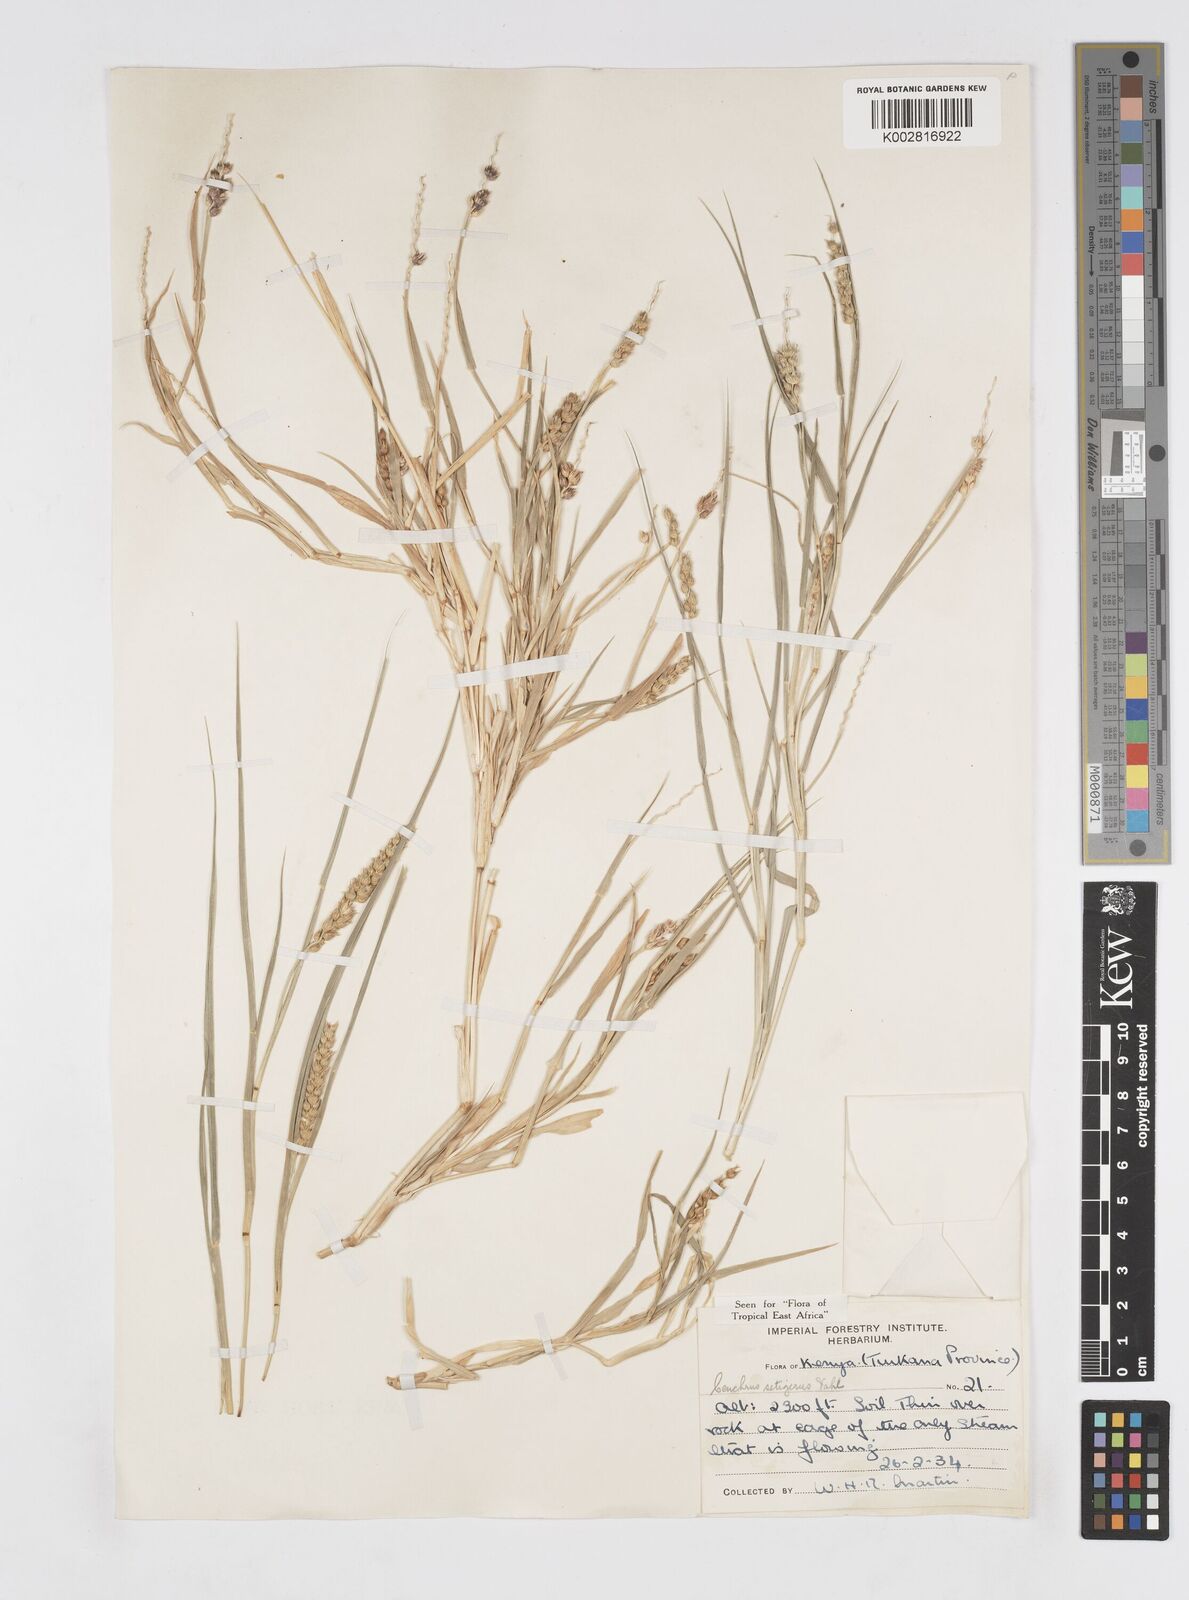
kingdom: Plantae
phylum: Tracheophyta
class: Liliopsida
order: Poales
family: Poaceae
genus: Cenchrus
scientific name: Cenchrus setigerus
